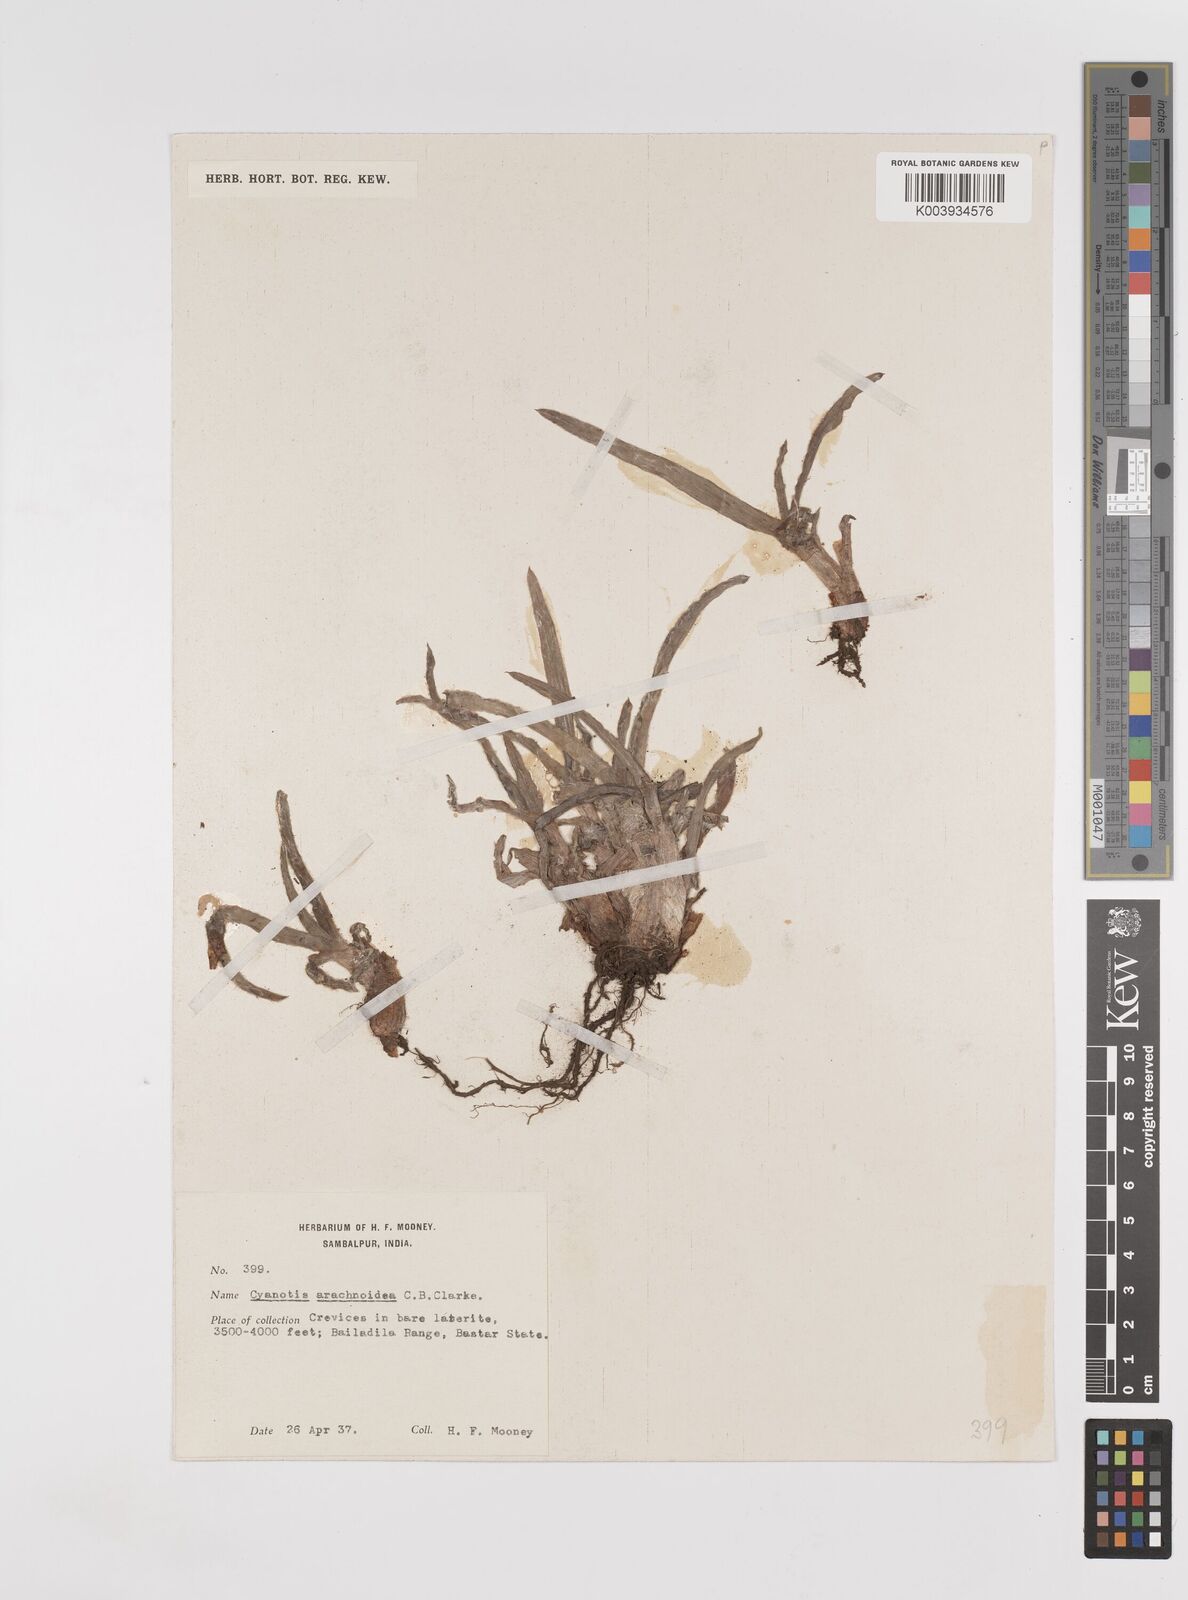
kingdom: Plantae
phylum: Tracheophyta
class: Liliopsida
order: Commelinales
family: Commelinaceae
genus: Cyanotis
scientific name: Cyanotis arachnoidea
